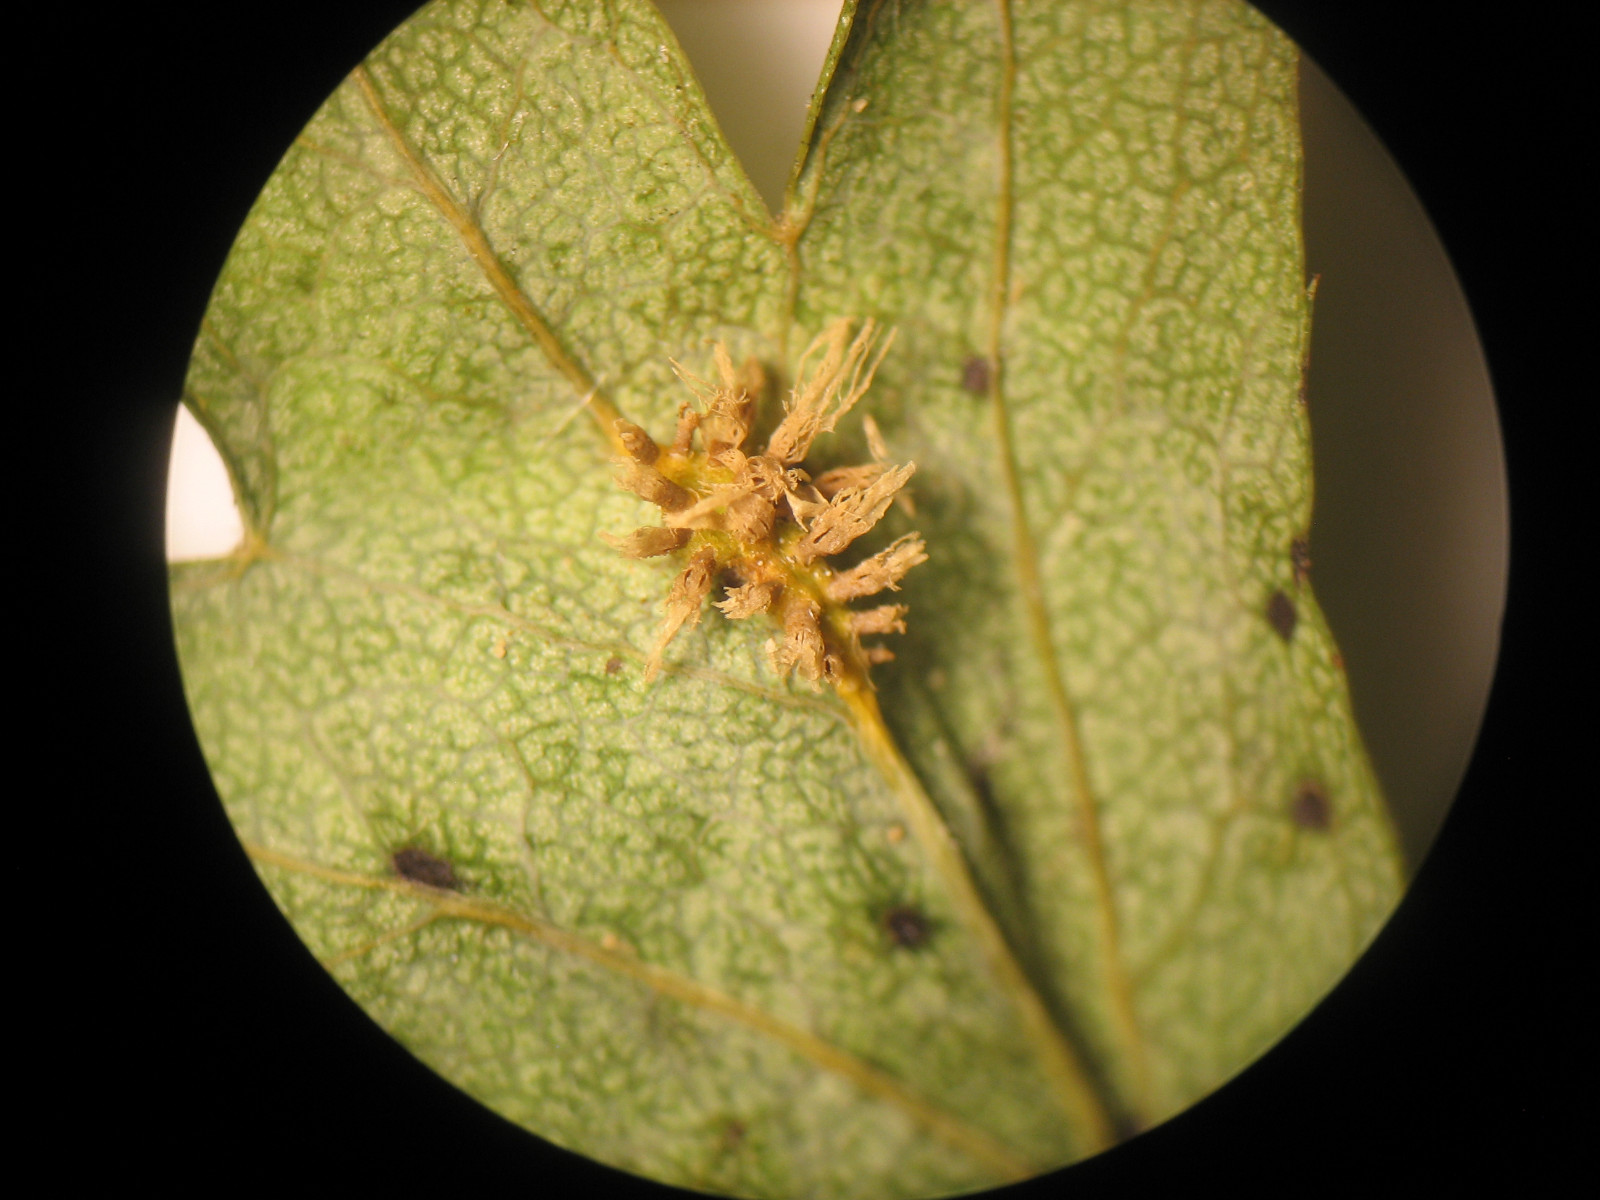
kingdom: Fungi
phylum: Basidiomycota
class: Pucciniomycetes
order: Pucciniales
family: Gymnosporangiaceae
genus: Gymnosporangium
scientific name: Gymnosporangium confusum
